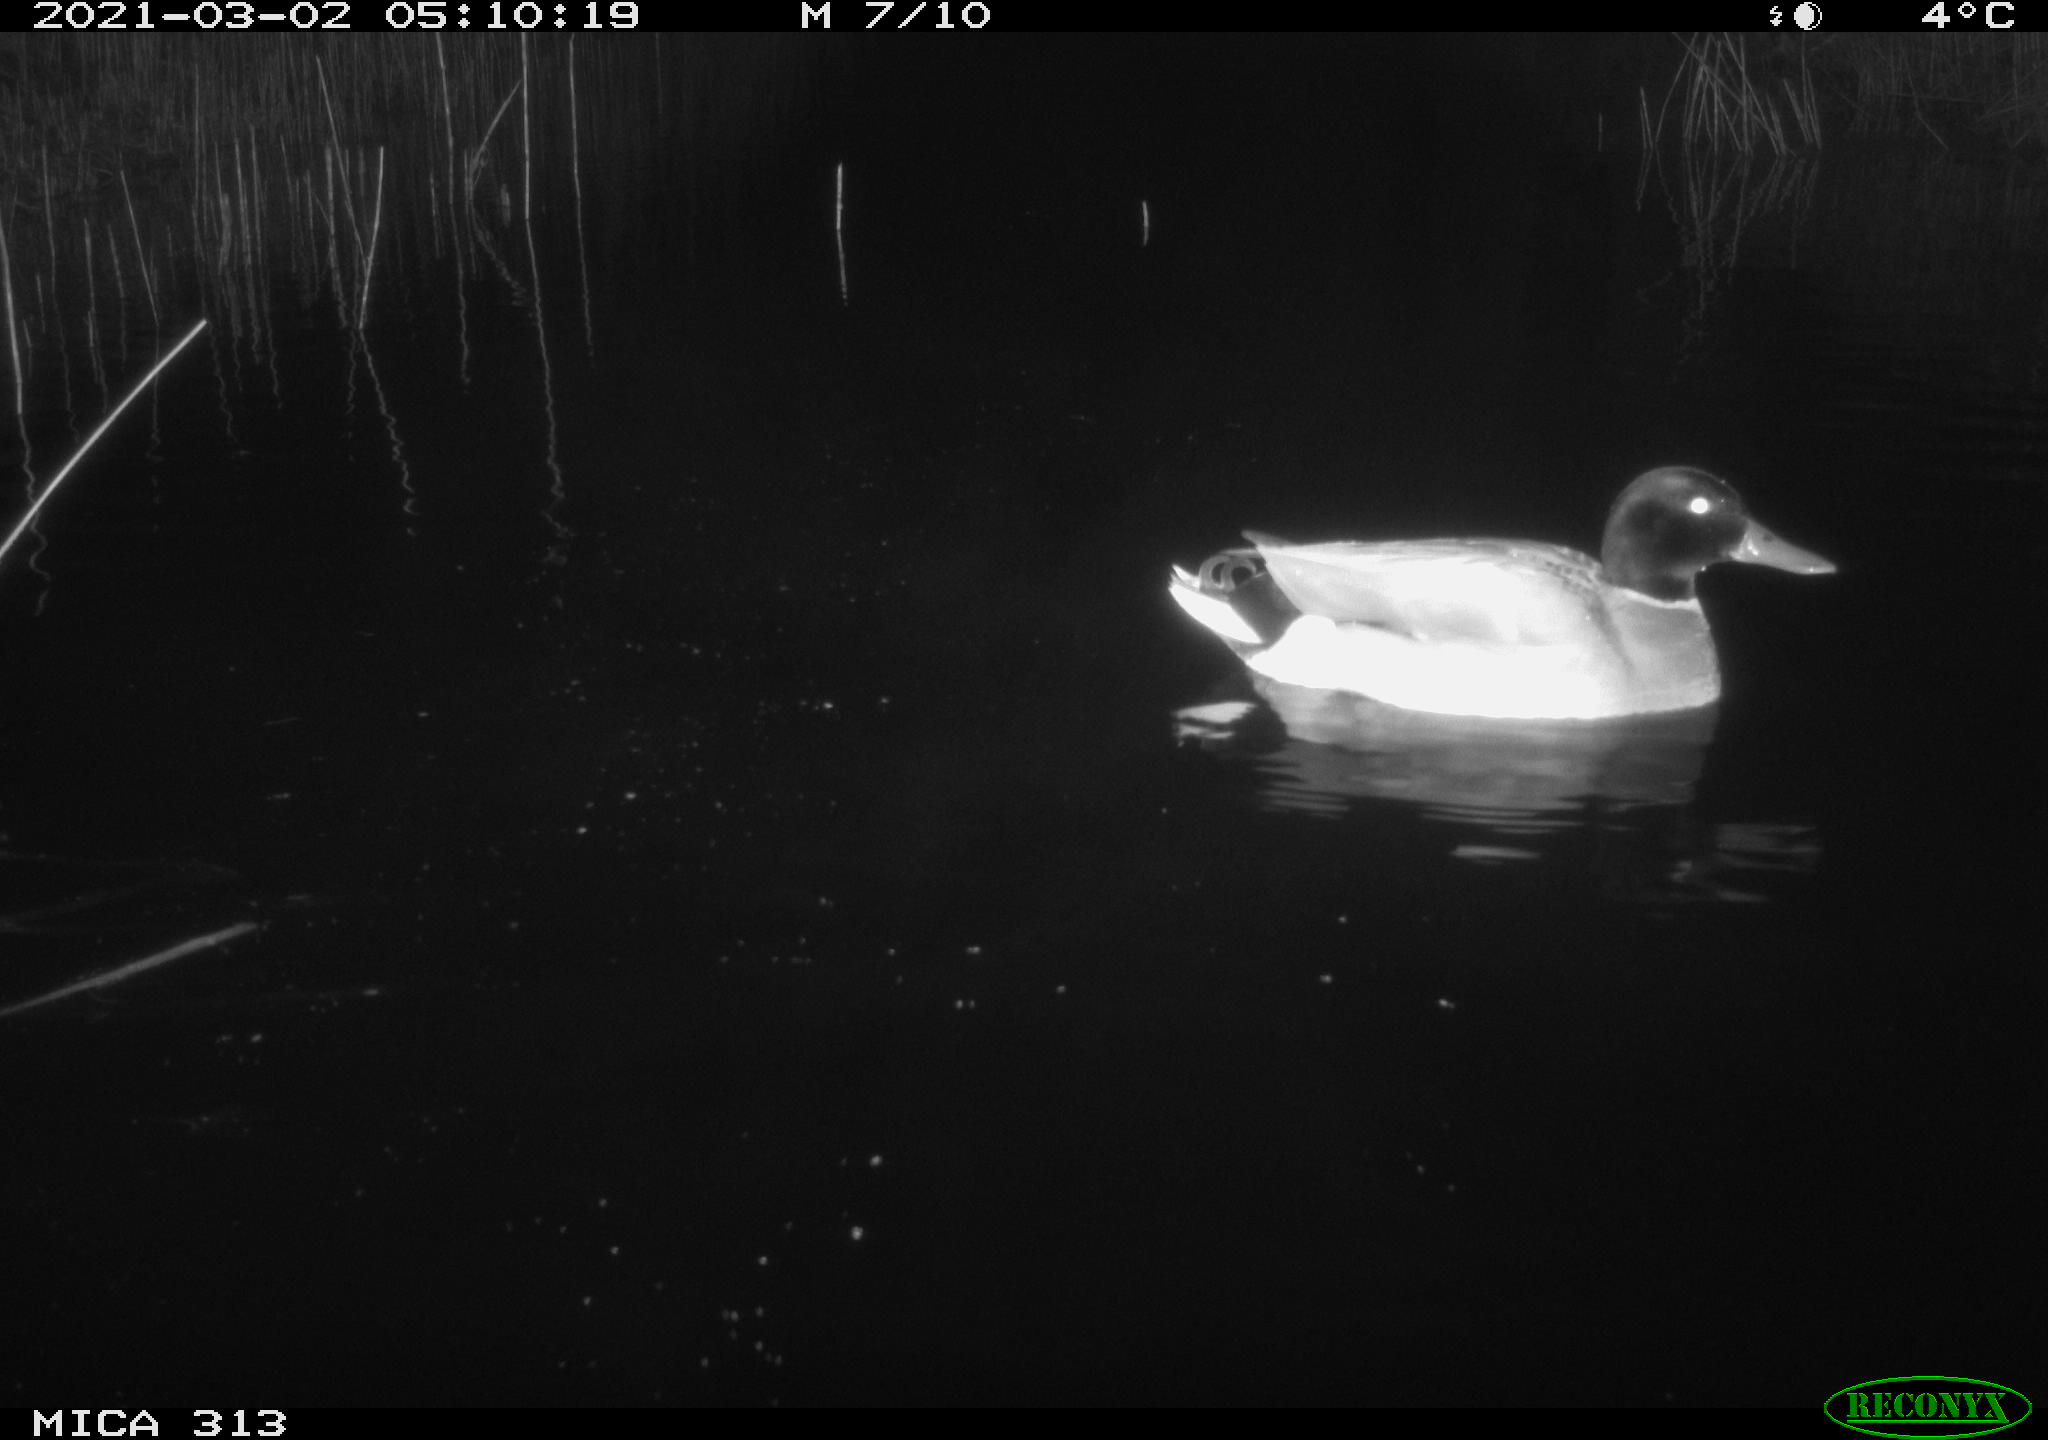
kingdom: Animalia
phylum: Chordata
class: Aves
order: Anseriformes
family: Anatidae
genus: Anas
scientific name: Anas
